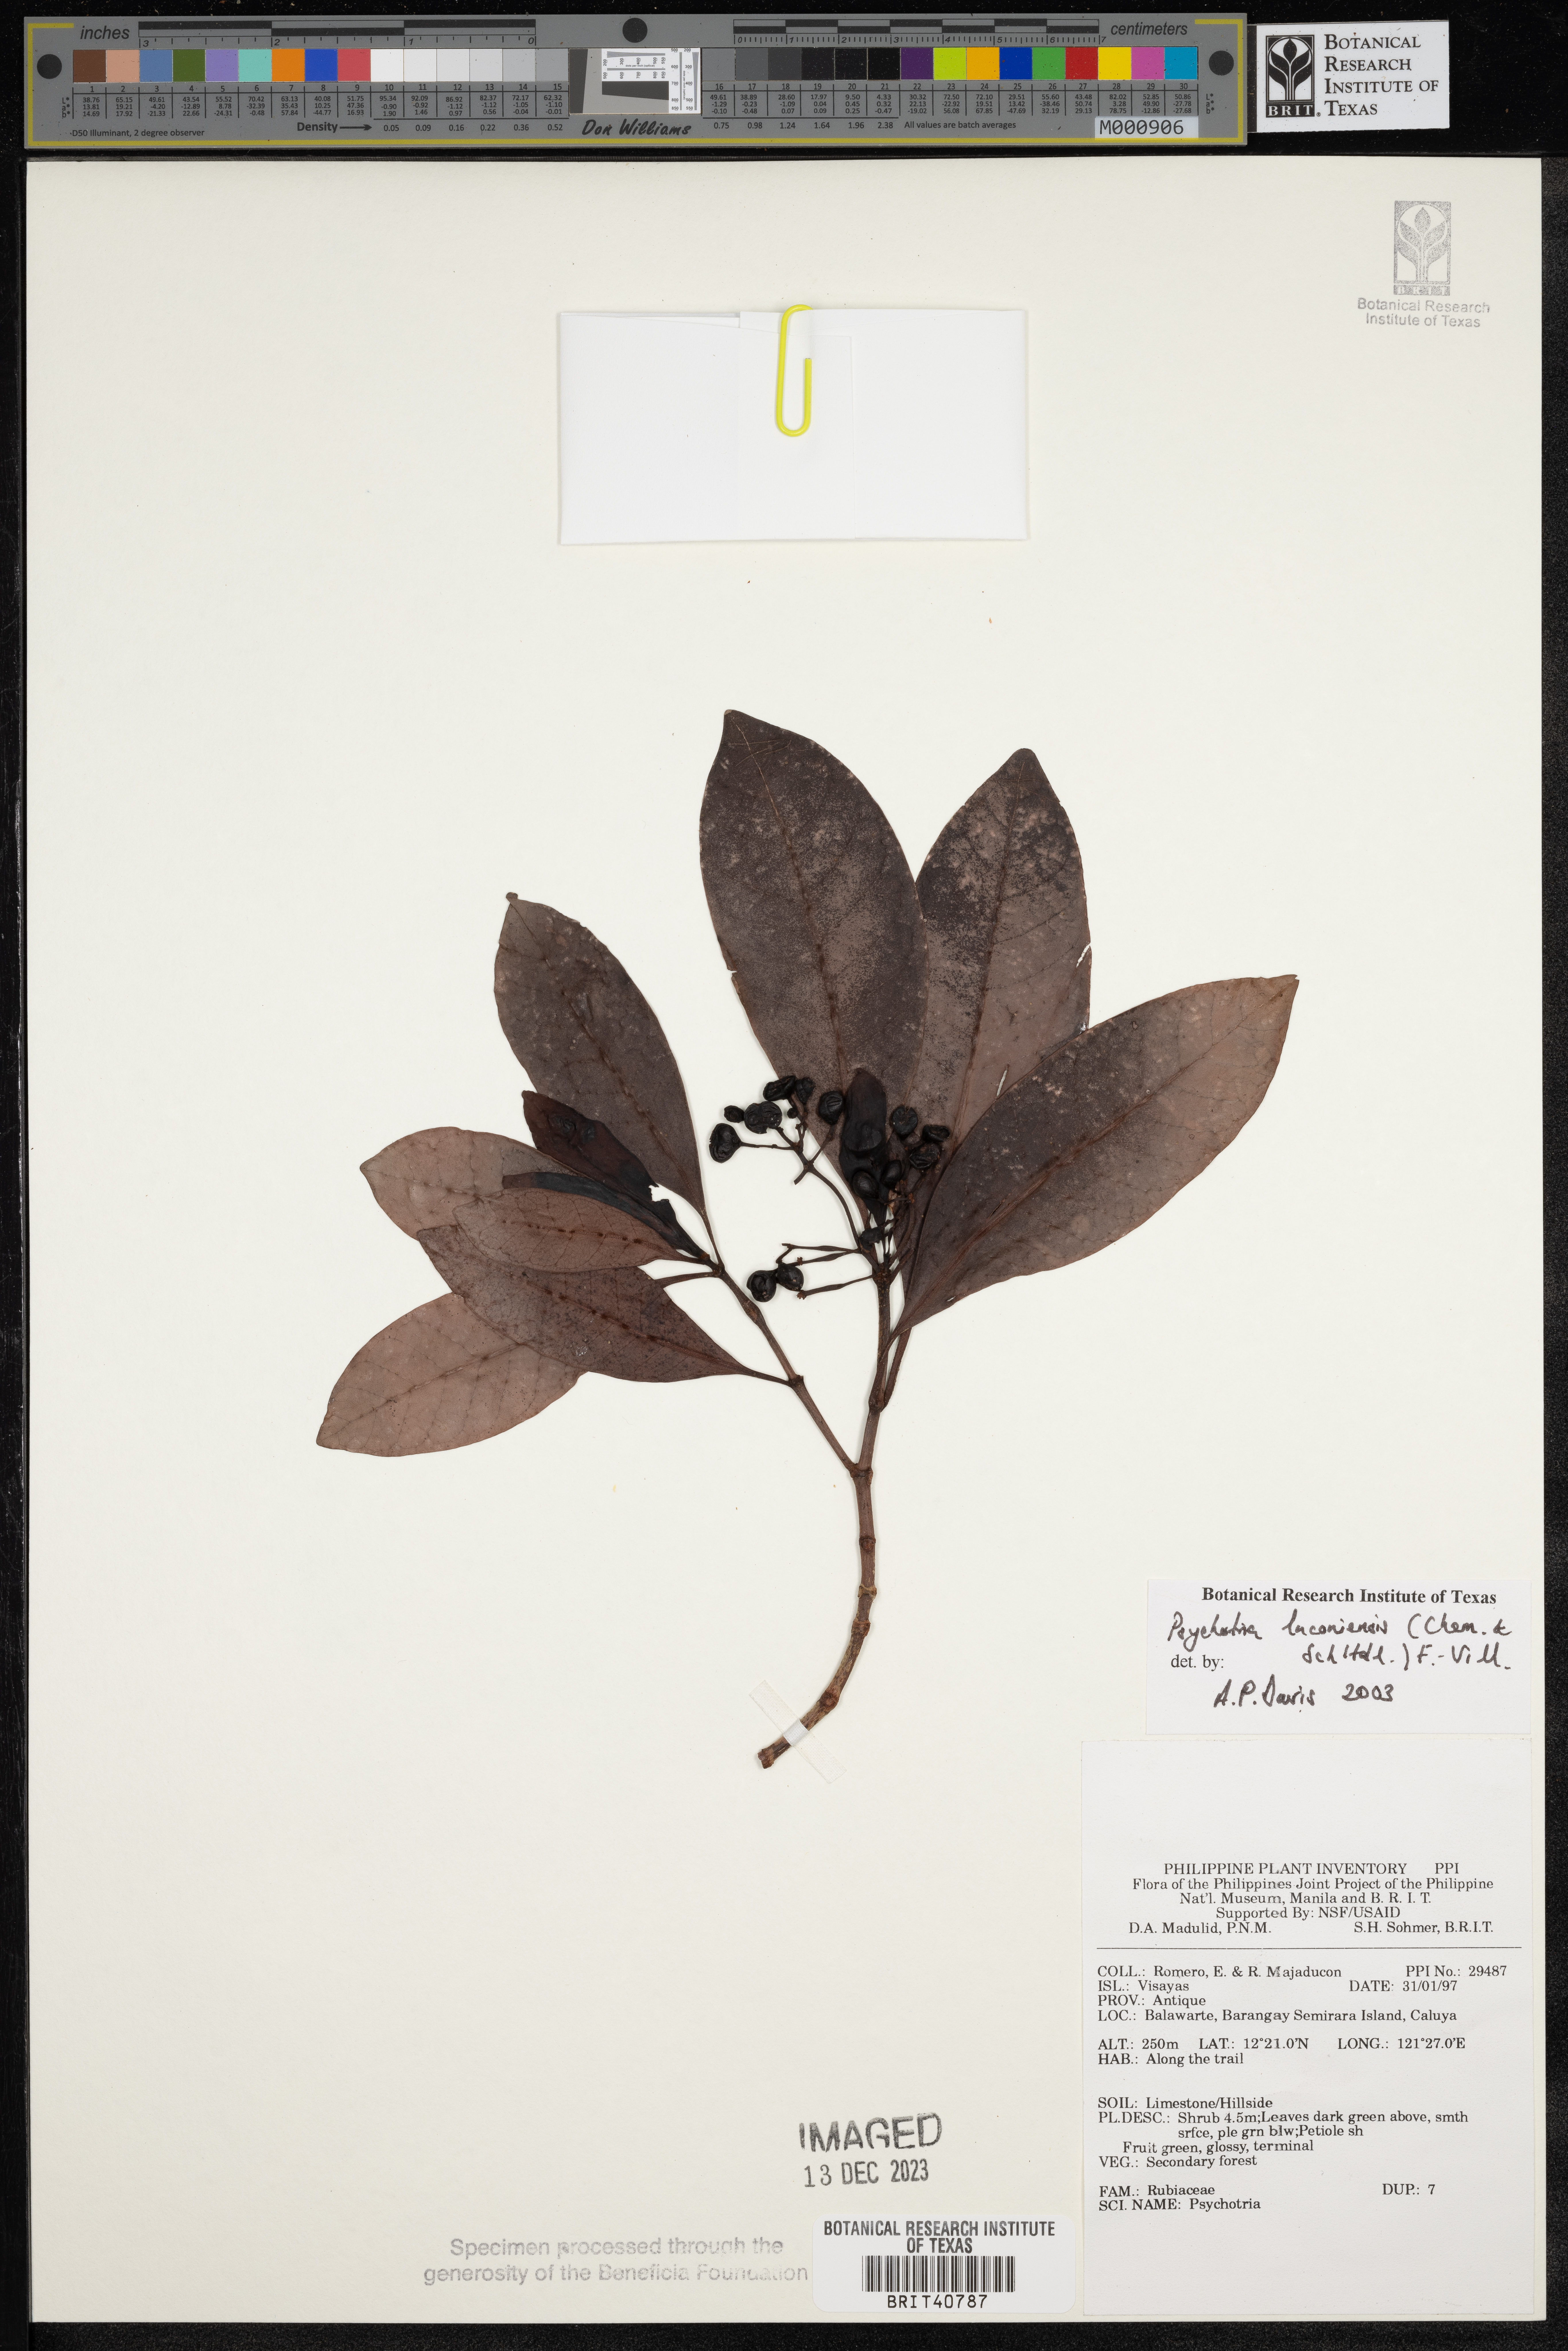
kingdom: Plantae
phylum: Tracheophyta
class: Magnoliopsida
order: Gentianales
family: Rubiaceae
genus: Psychotria
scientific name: Psychotria luzoniensis
